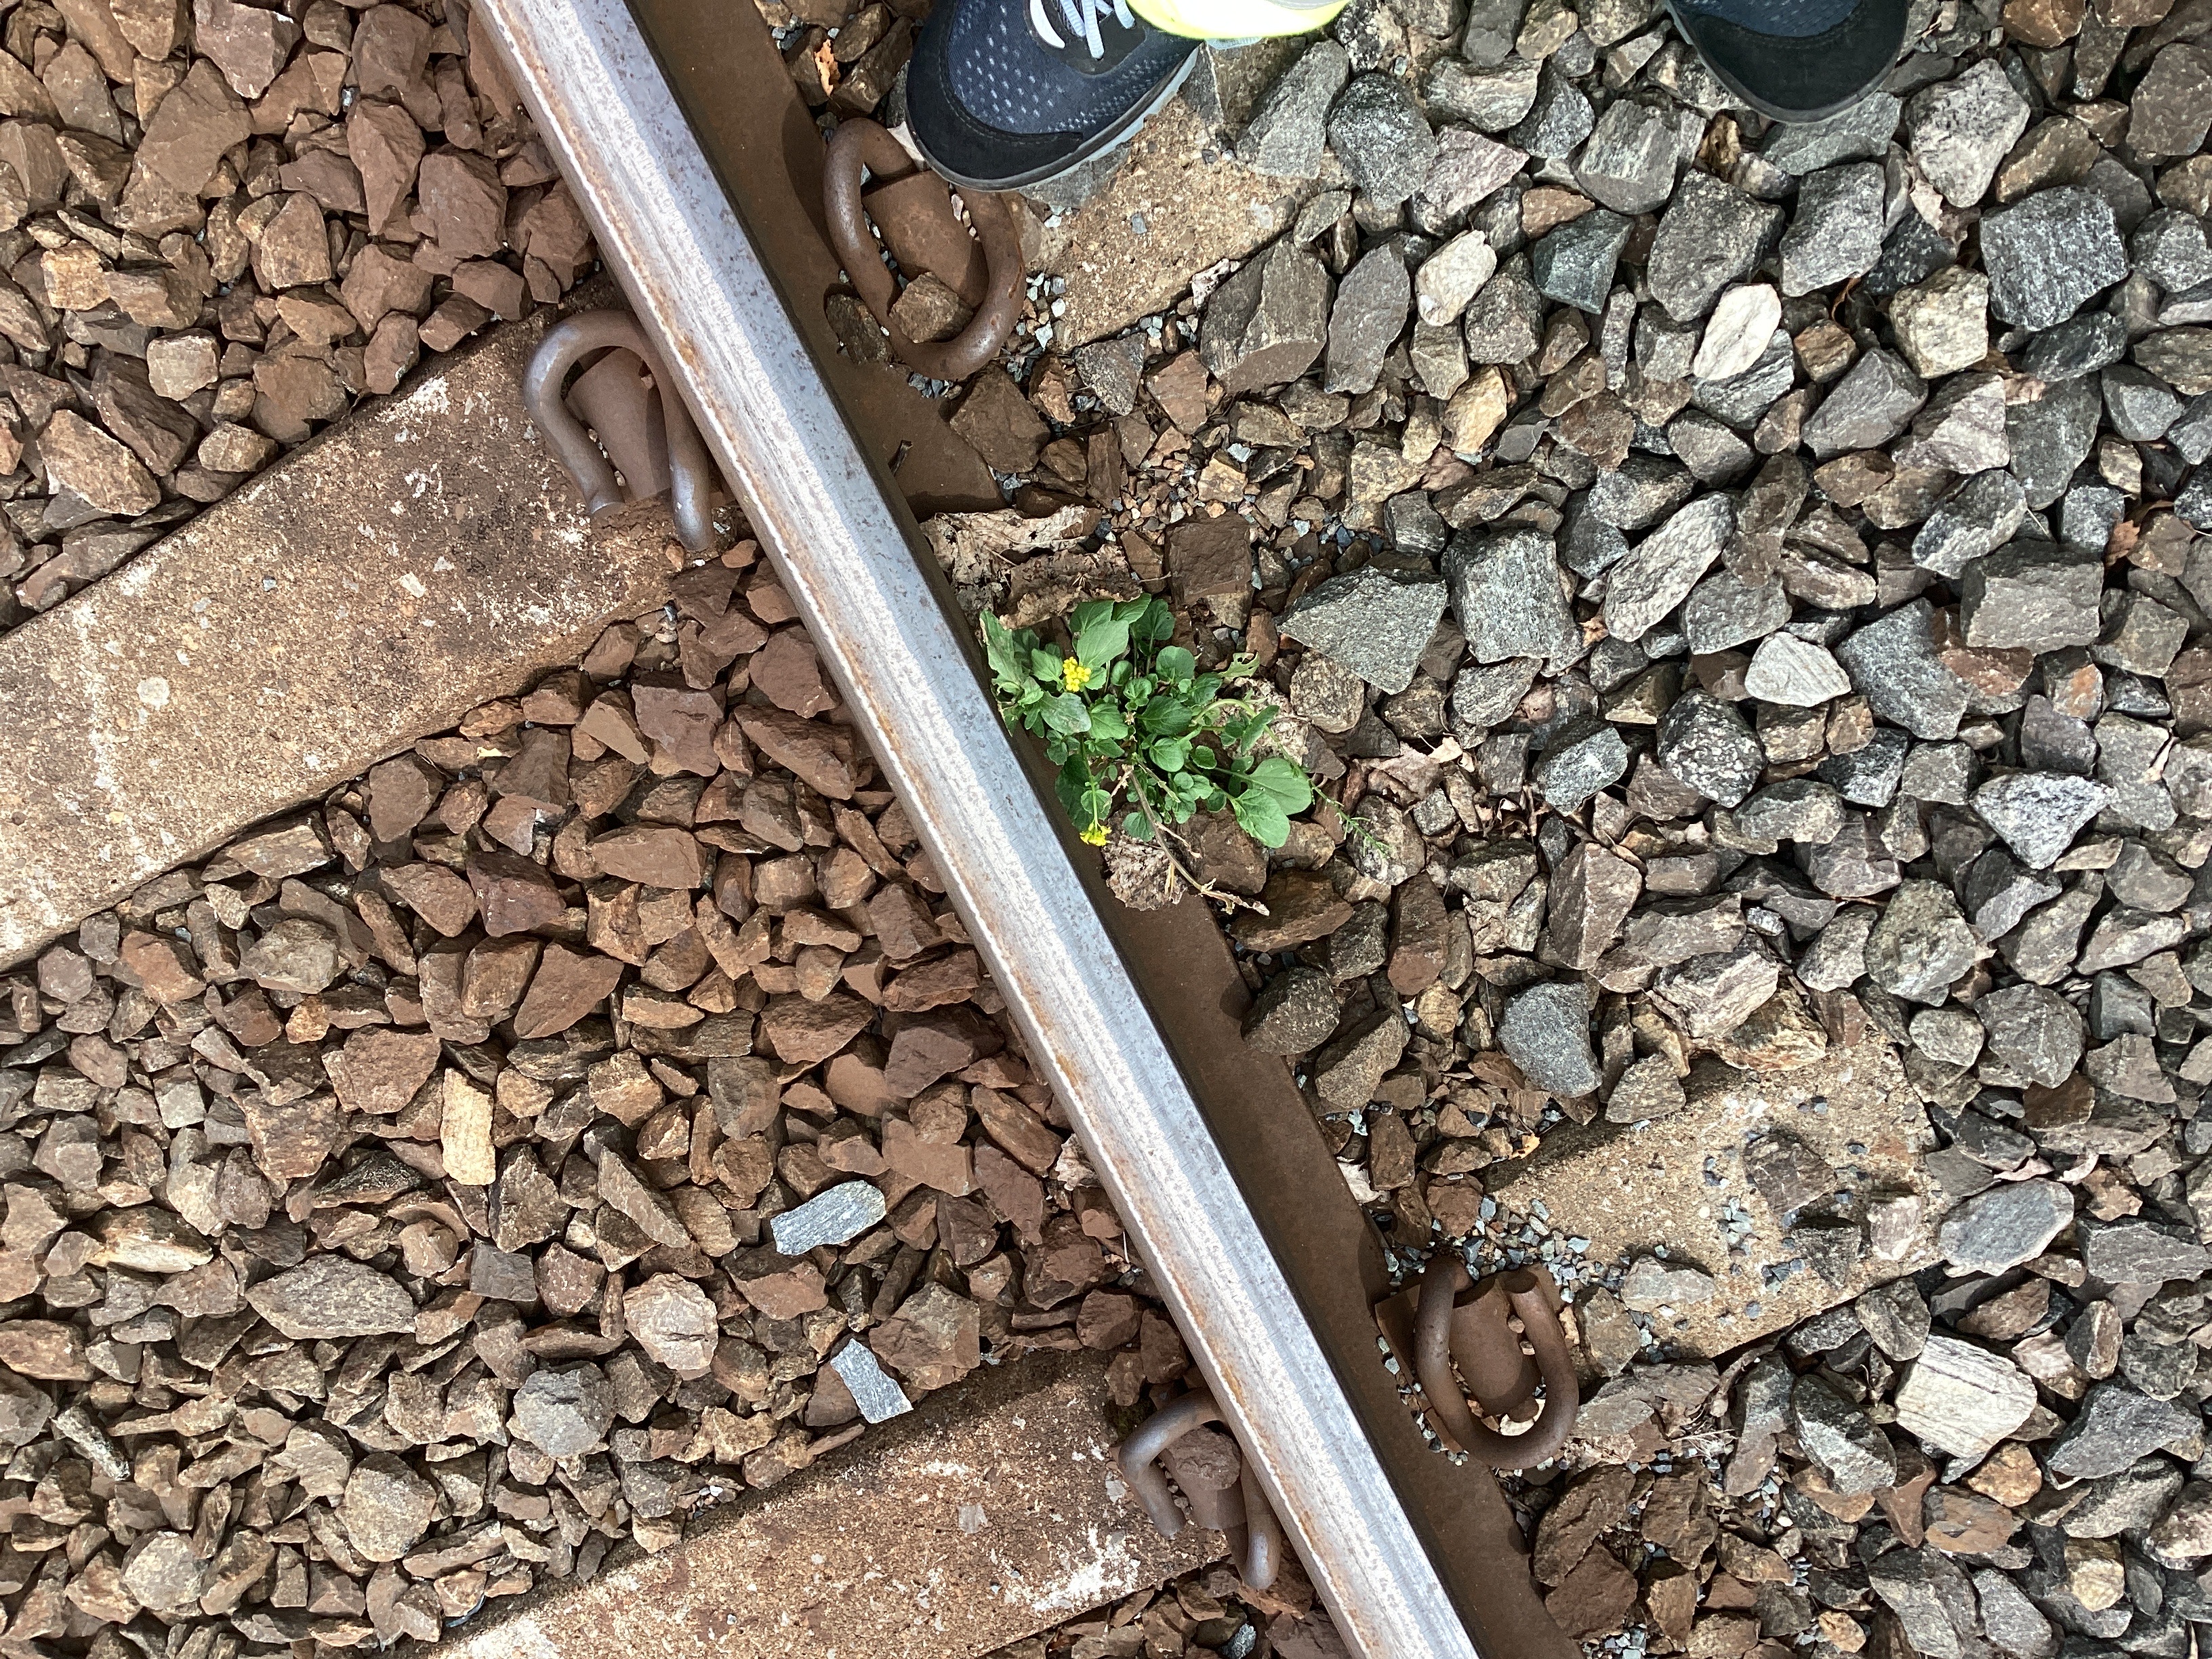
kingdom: Plantae
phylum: Tracheophyta
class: Magnoliopsida
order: Brassicales
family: Brassicaceae
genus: Barbarea
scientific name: Barbarea vulgaris
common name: vinterkarse
